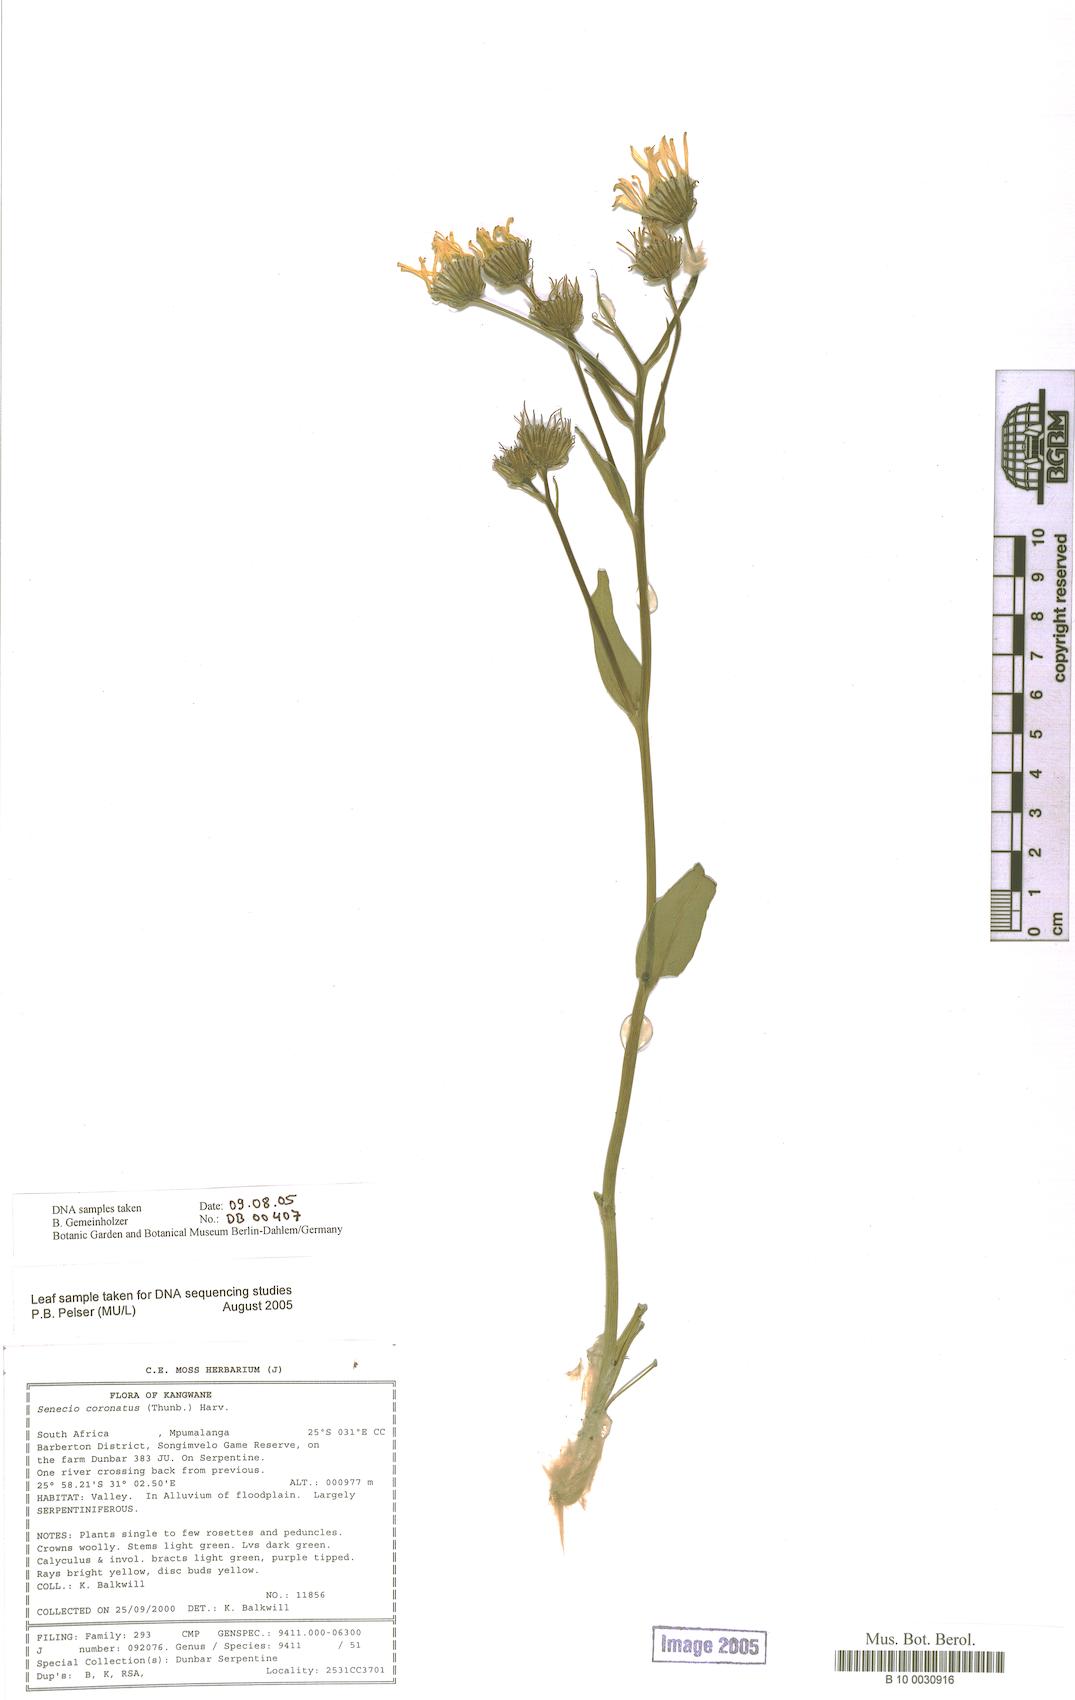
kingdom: Plantae
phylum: Tracheophyta
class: Magnoliopsida
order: Asterales
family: Asteraceae
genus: Senecio
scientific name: Senecio coronatus
